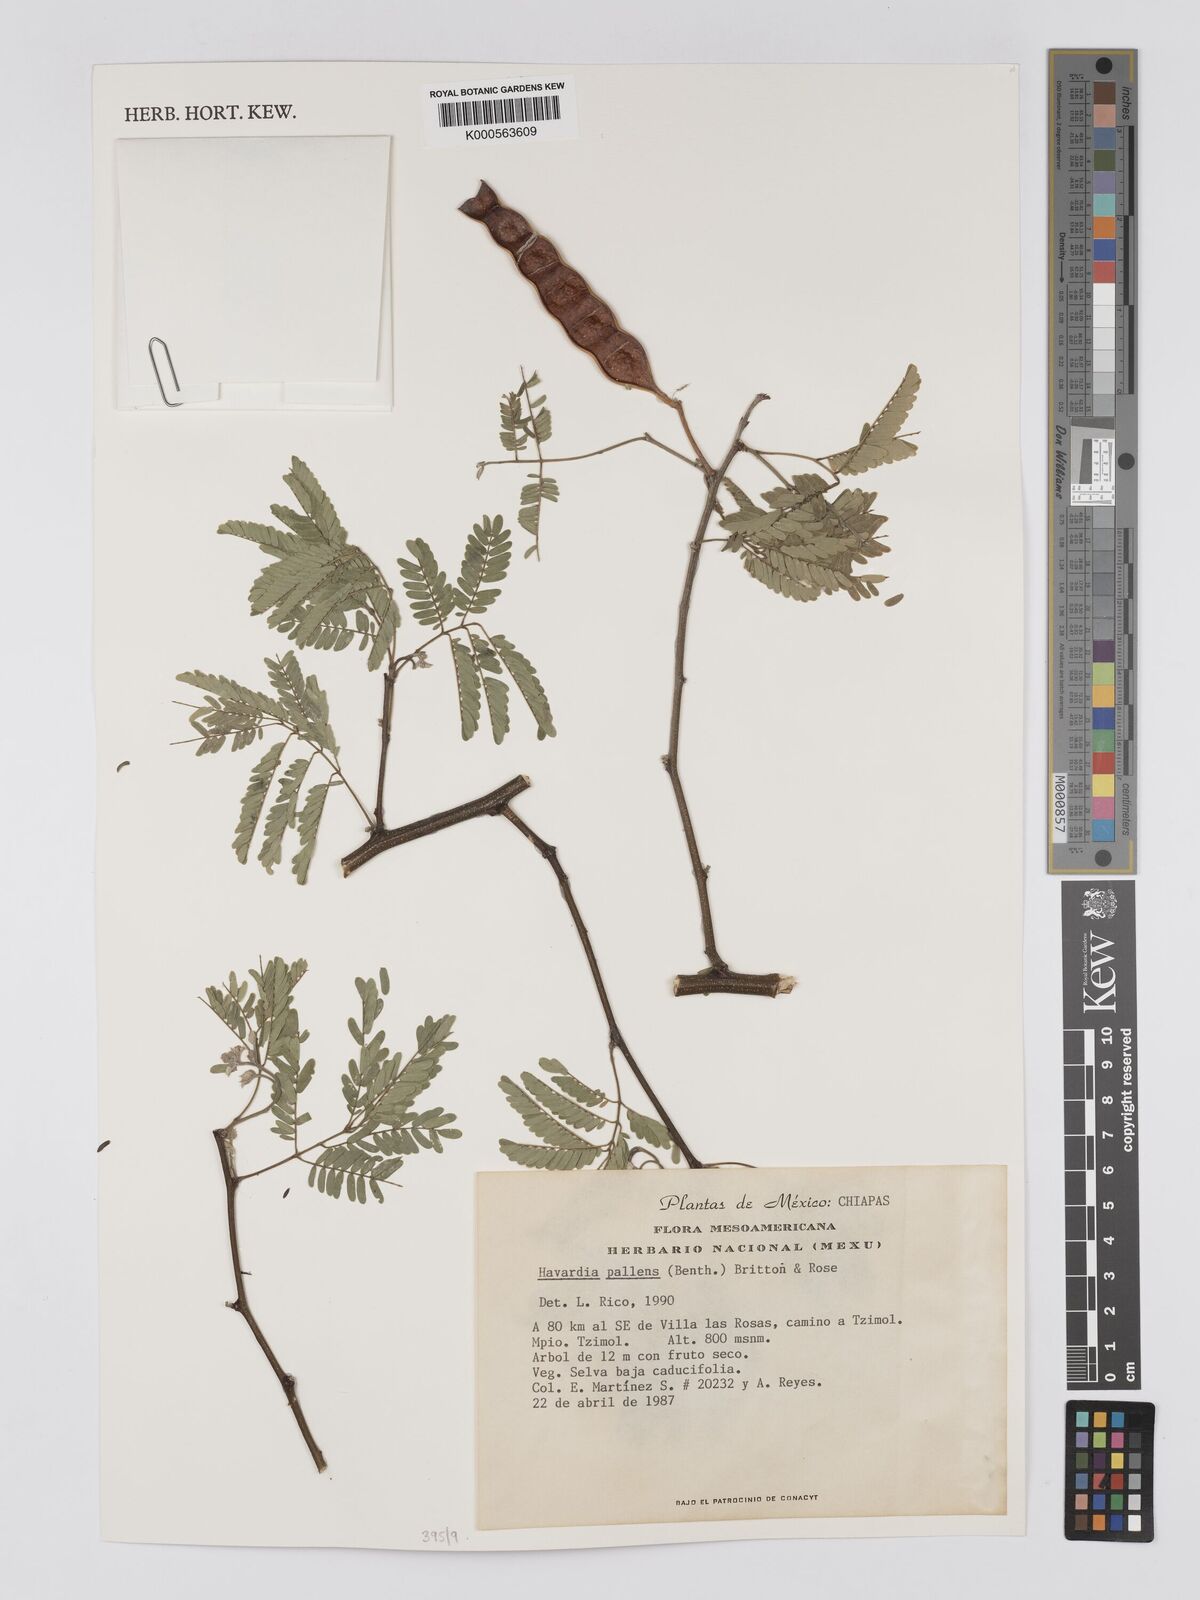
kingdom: Plantae
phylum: Tracheophyta
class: Magnoliopsida
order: Fabales
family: Fabaceae
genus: Havardia
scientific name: Havardia pallens
